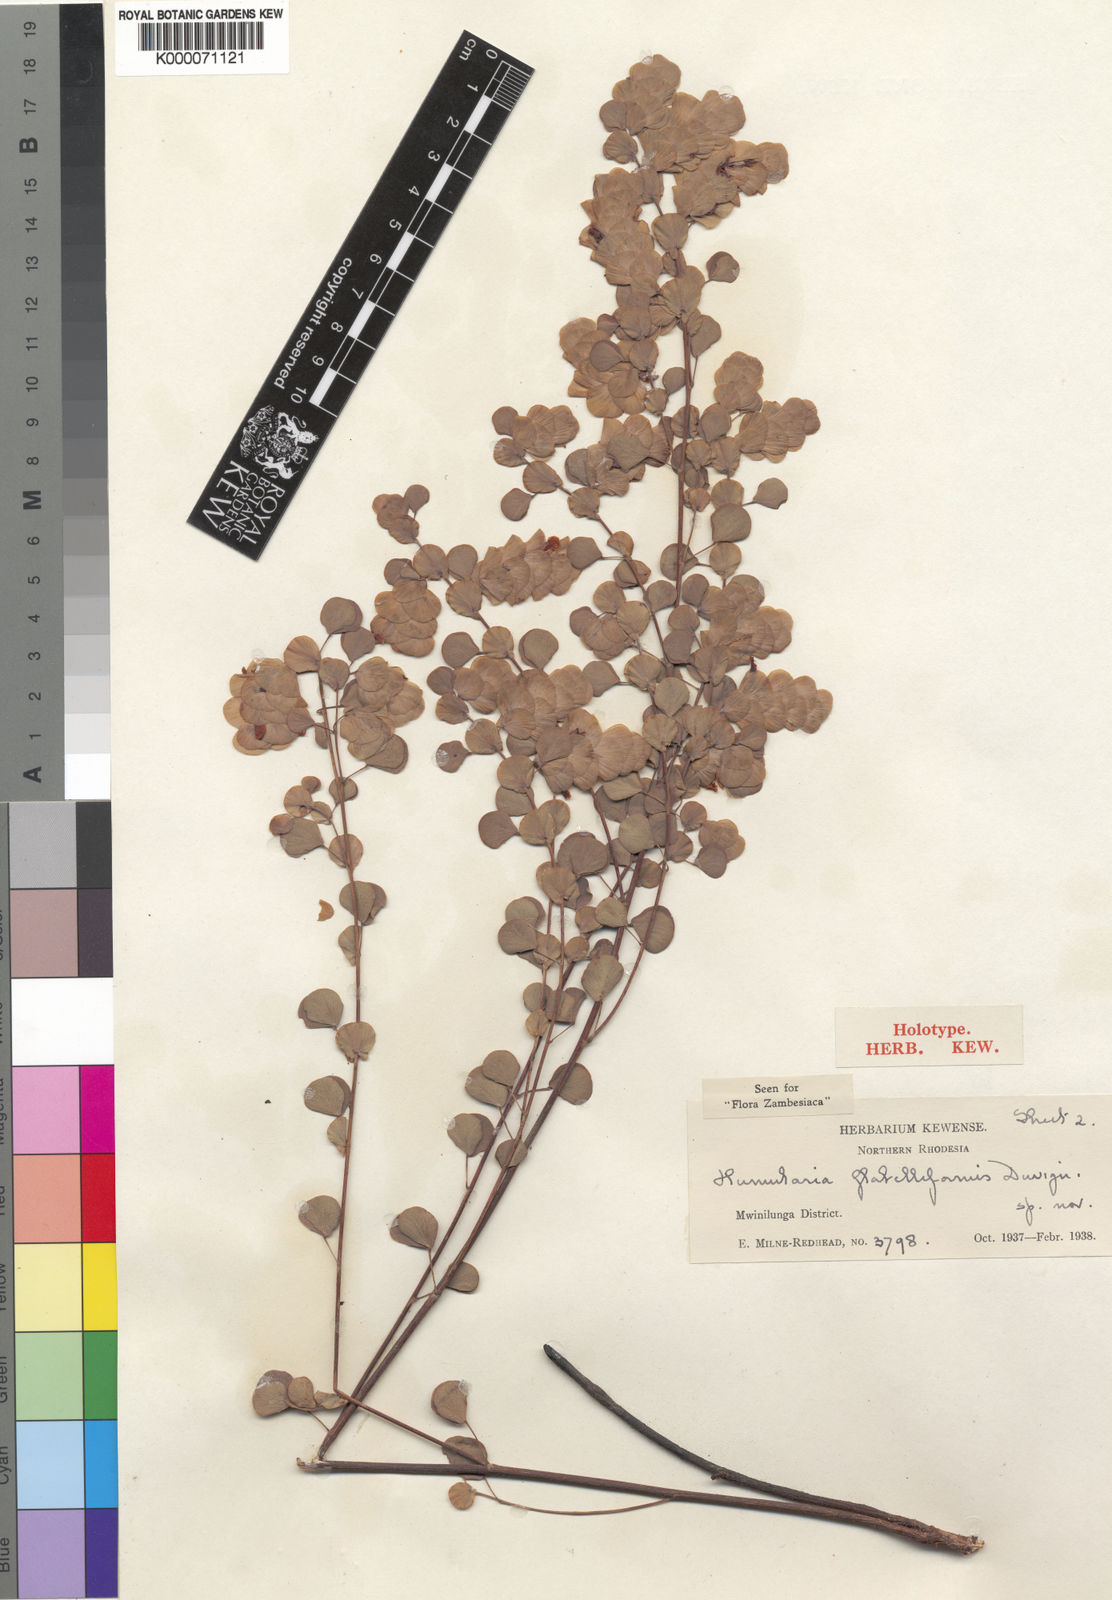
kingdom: Plantae
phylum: Tracheophyta
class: Magnoliopsida
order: Fabales
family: Fabaceae
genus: Humularia
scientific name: Humularia minima
